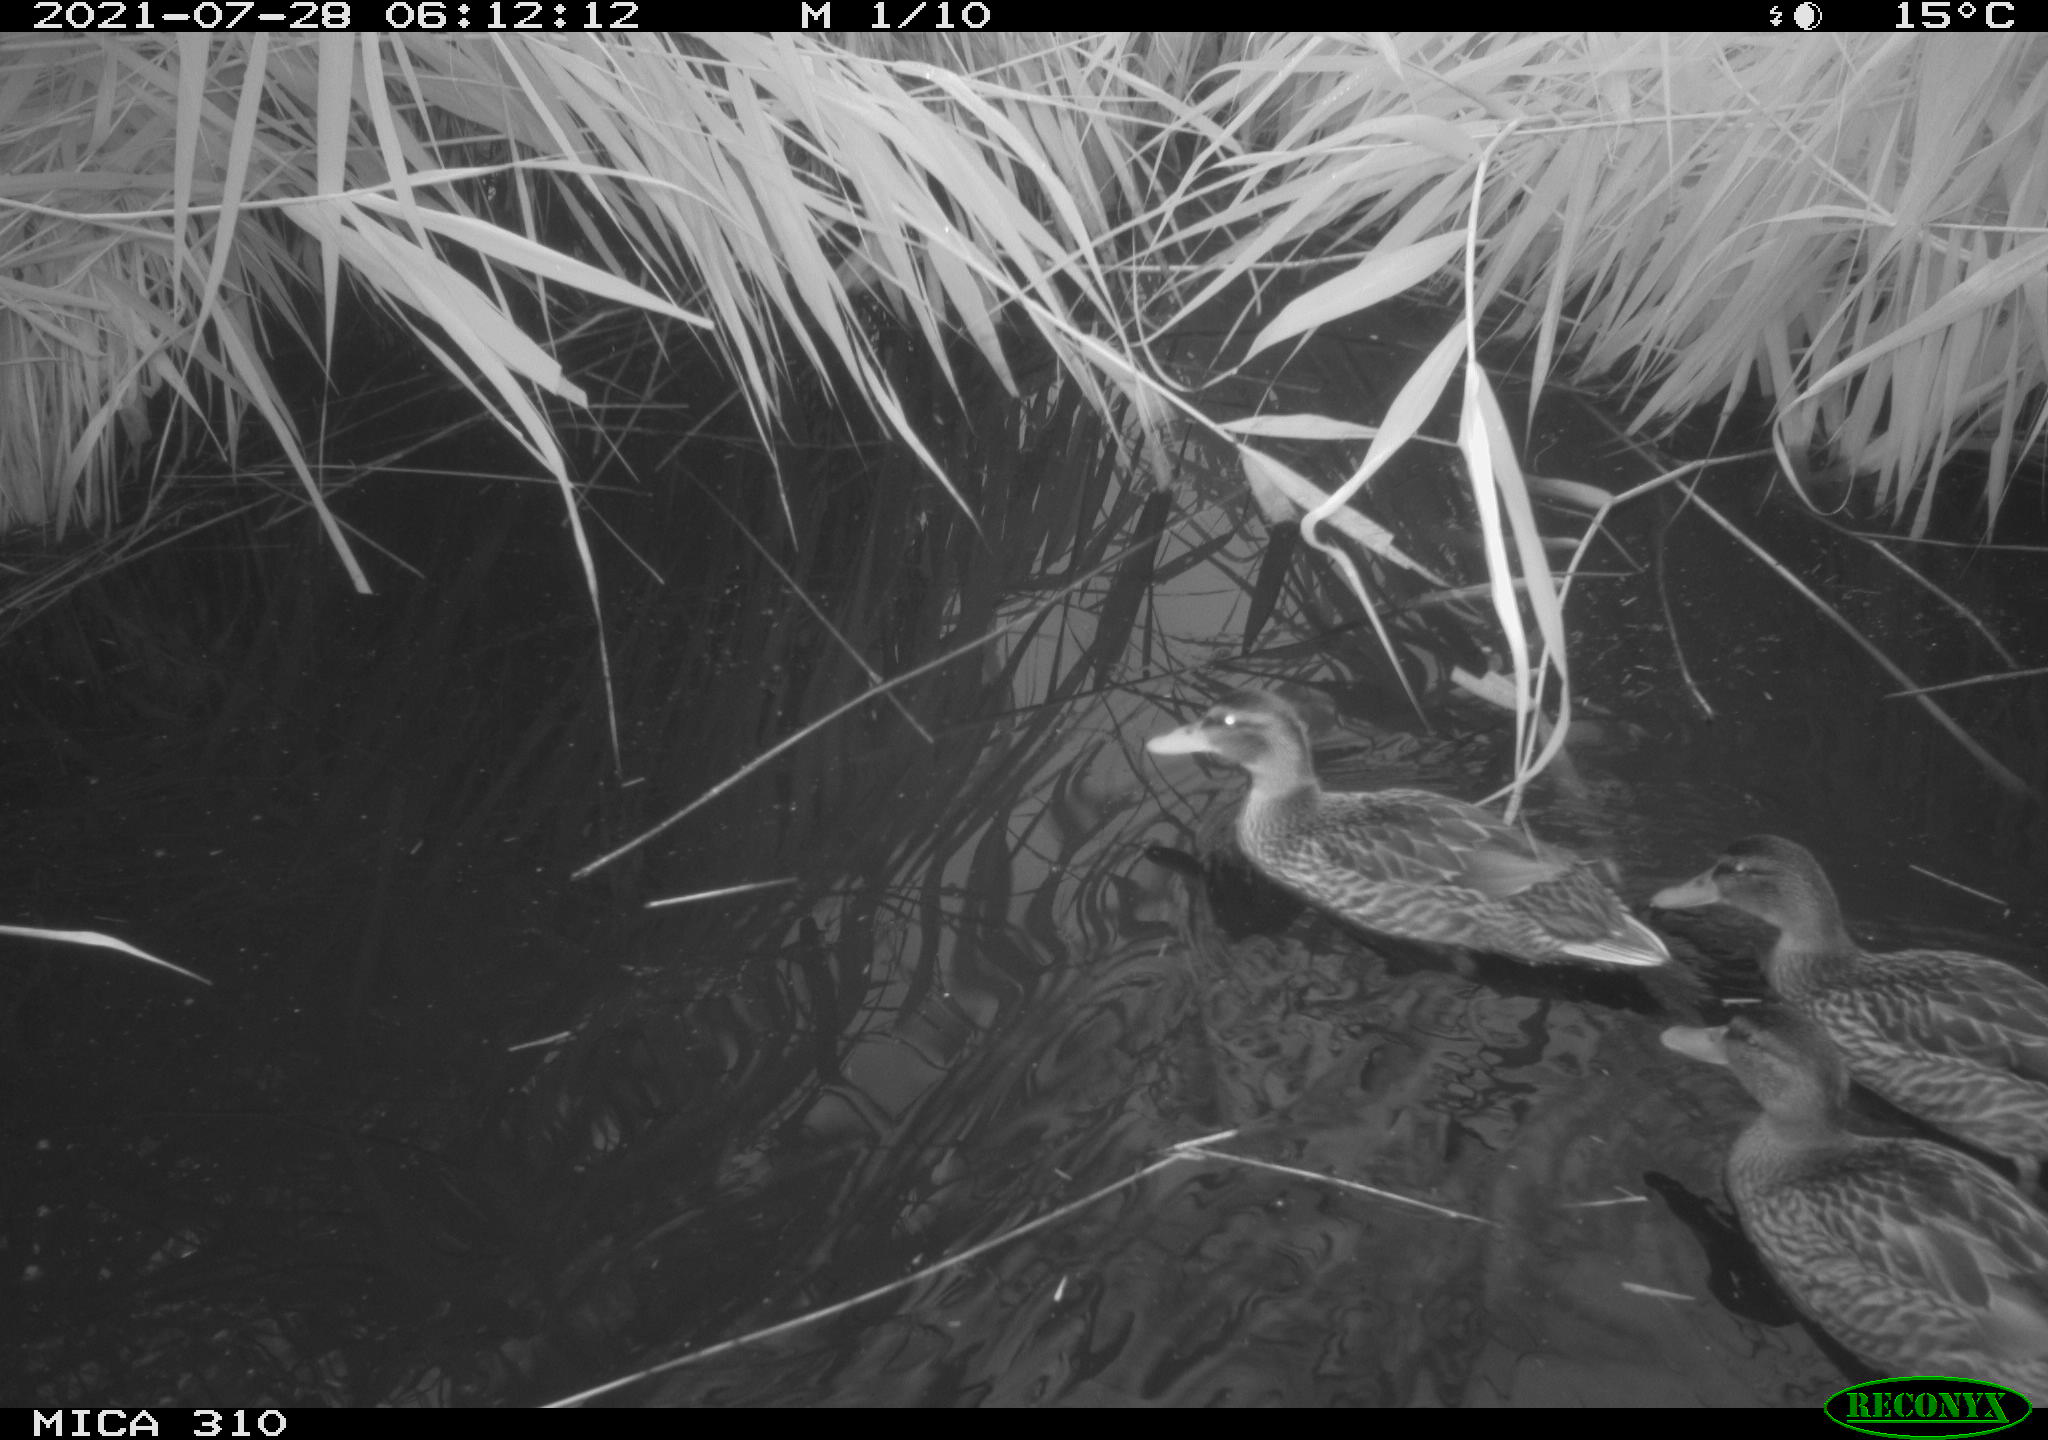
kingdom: Animalia
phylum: Chordata
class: Aves
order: Anseriformes
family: Anatidae
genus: Mareca
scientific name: Mareca strepera
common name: Gadwall
